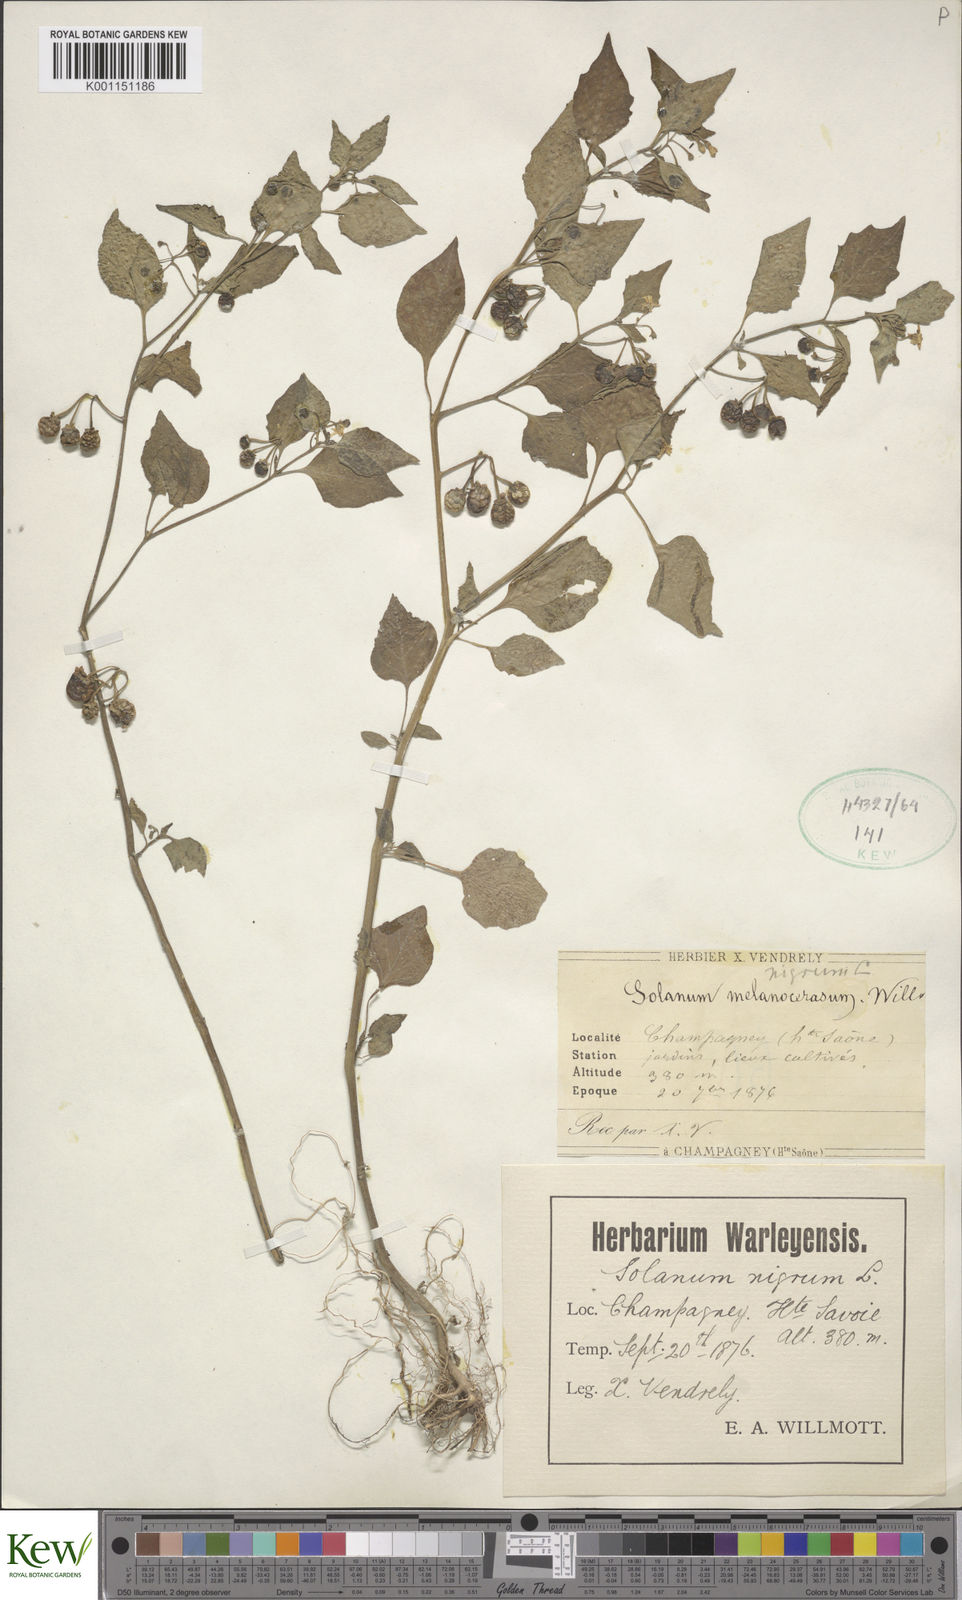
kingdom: Plantae
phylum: Tracheophyta
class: Magnoliopsida
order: Solanales
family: Solanaceae
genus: Solanum
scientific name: Solanum alatum
